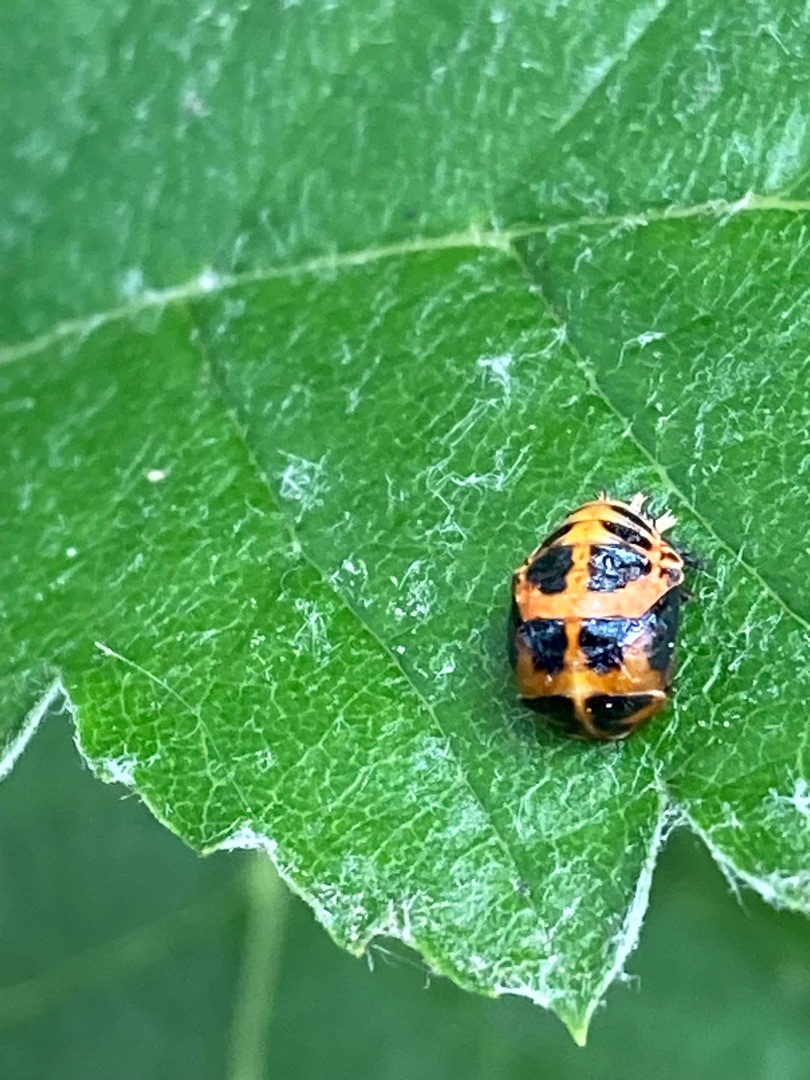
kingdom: Animalia
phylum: Arthropoda
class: Insecta
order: Coleoptera
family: Coccinellidae
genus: Harmonia
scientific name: Harmonia axyridis
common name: Harlekinmariehøne
